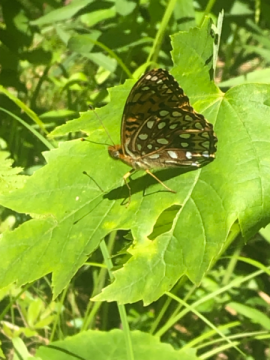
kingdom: Animalia
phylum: Arthropoda
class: Insecta
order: Lepidoptera
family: Nymphalidae
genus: Speyeria
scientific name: Speyeria atlantis
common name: Atlantis Fritillary
